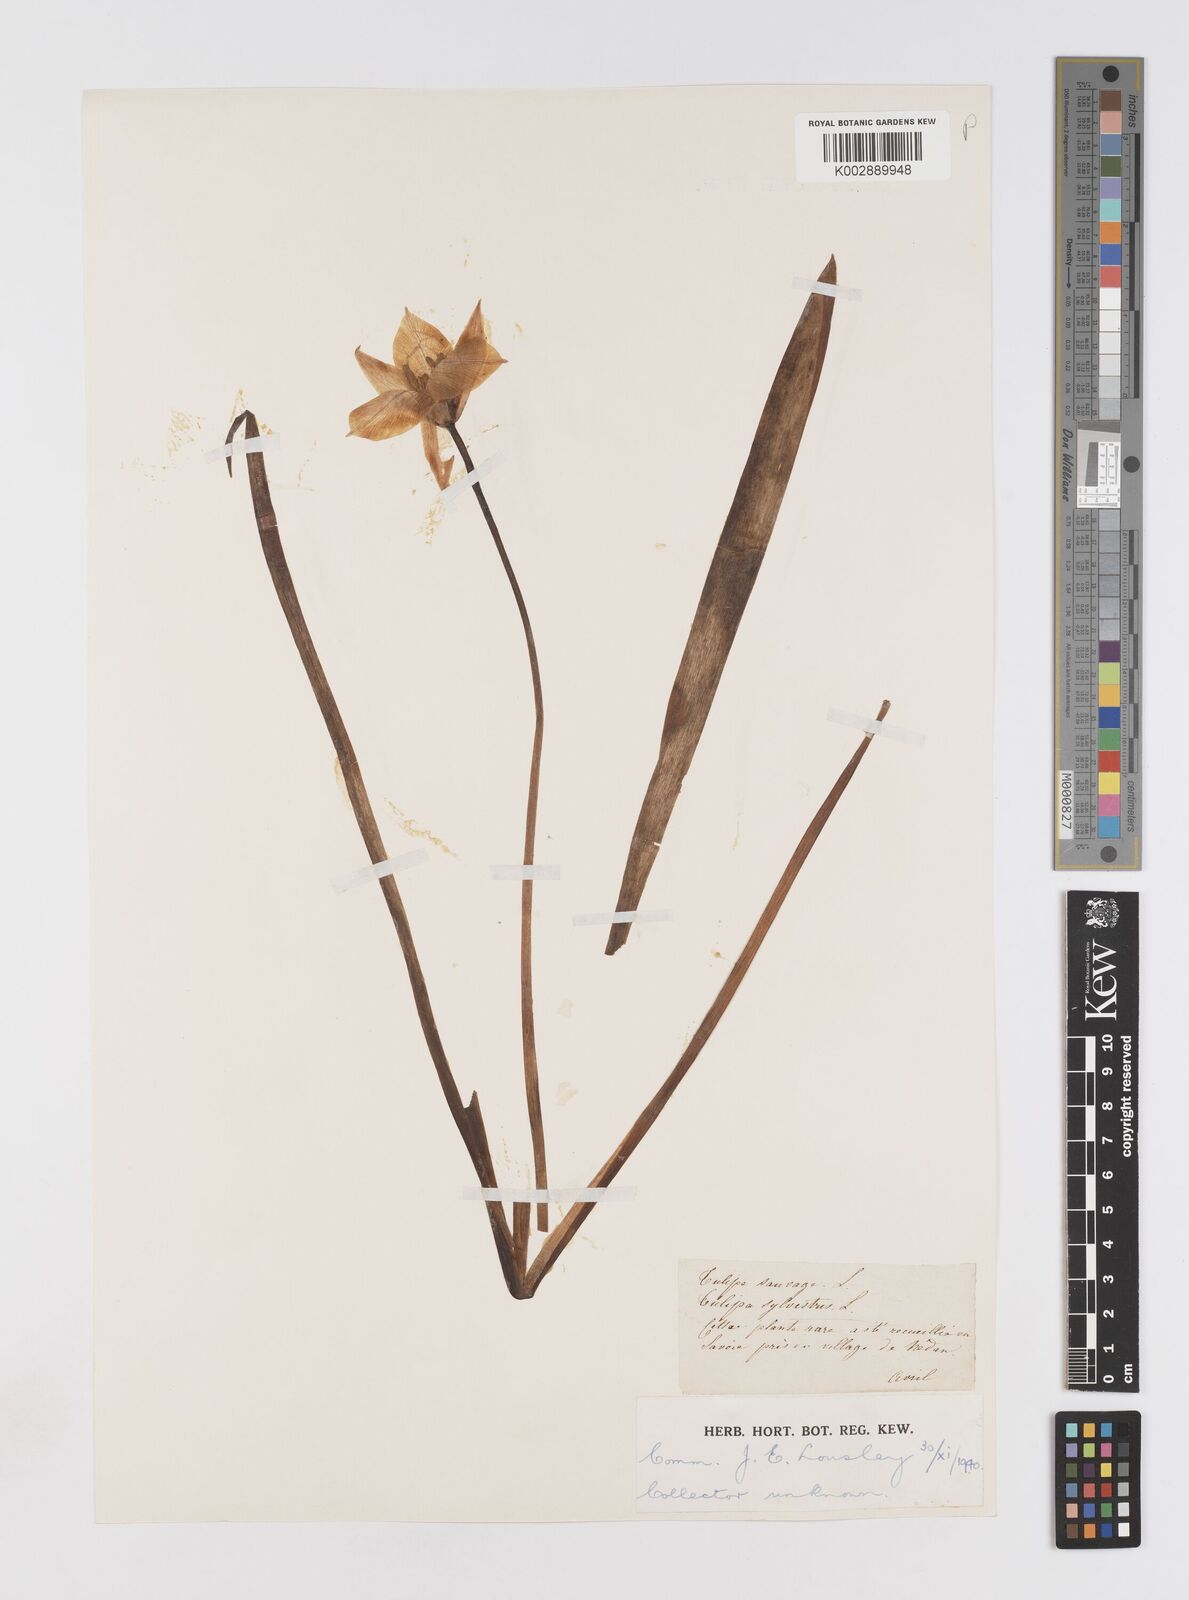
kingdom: Plantae
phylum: Tracheophyta
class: Liliopsida
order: Liliales
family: Liliaceae
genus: Tulipa
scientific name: Tulipa sylvestris
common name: Wild tulip
